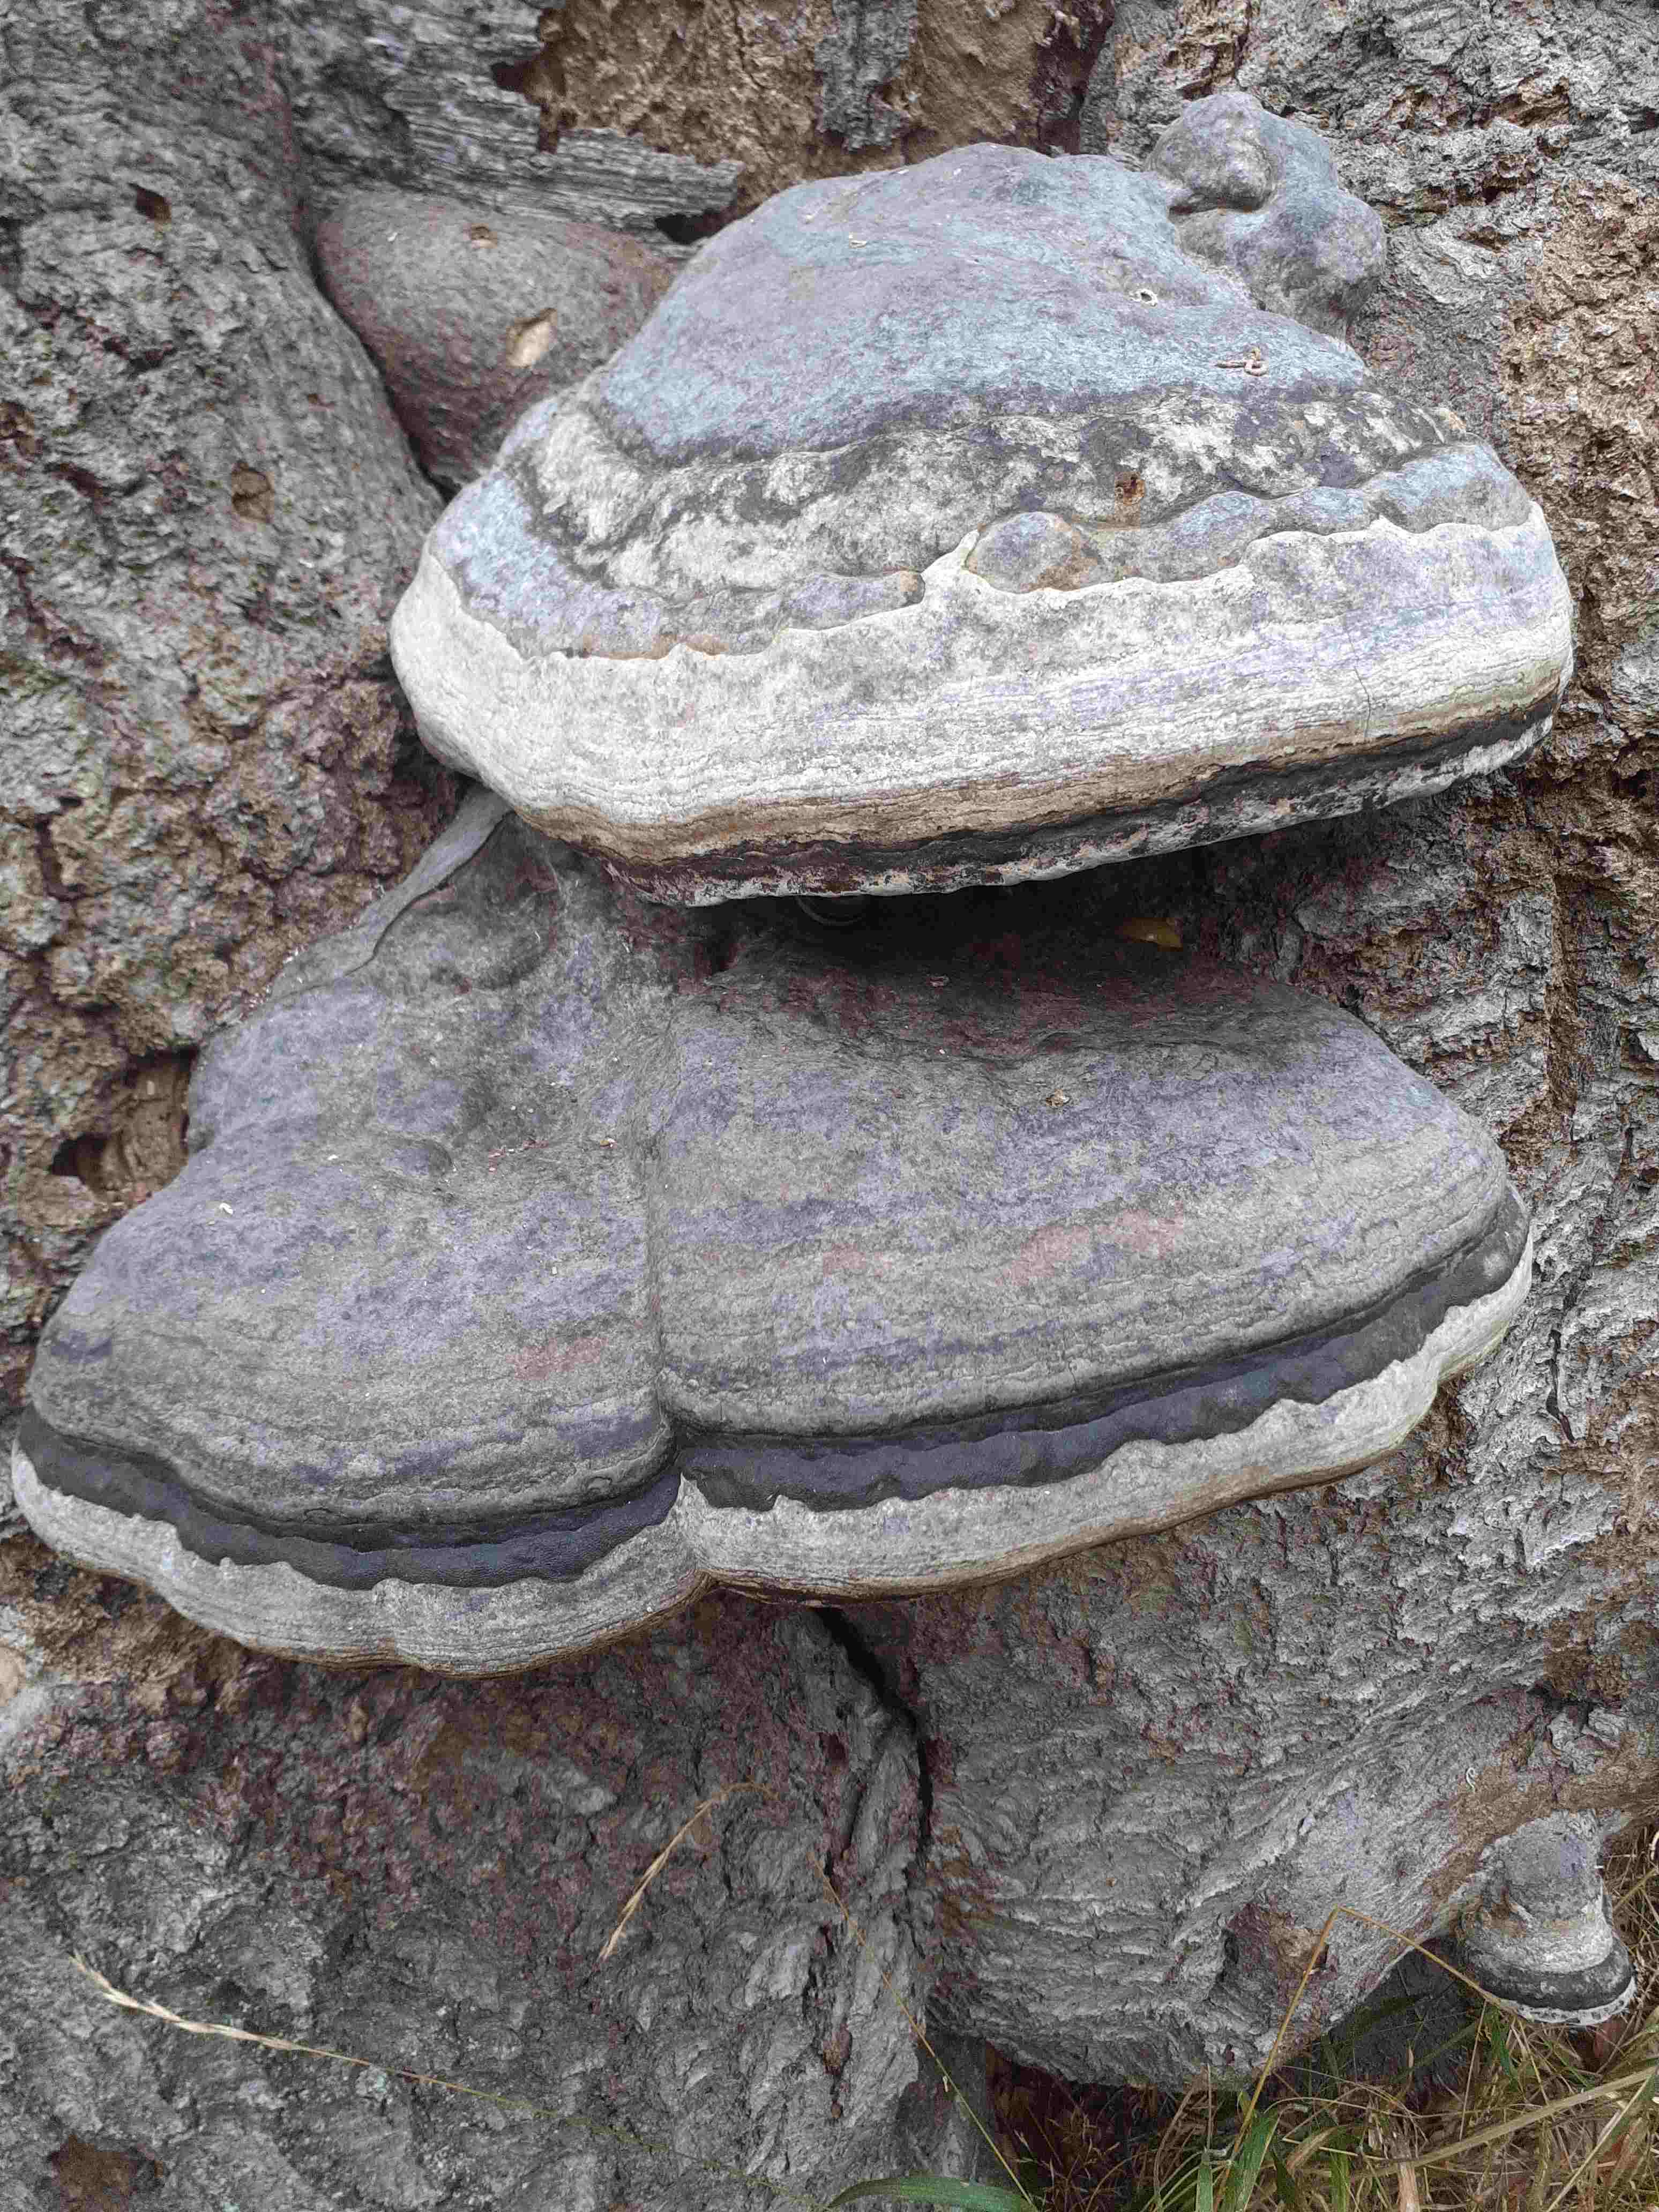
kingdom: Fungi
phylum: Basidiomycota
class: Agaricomycetes
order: Polyporales
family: Polyporaceae
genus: Fomes
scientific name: Fomes fomentarius
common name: tøndersvamp
